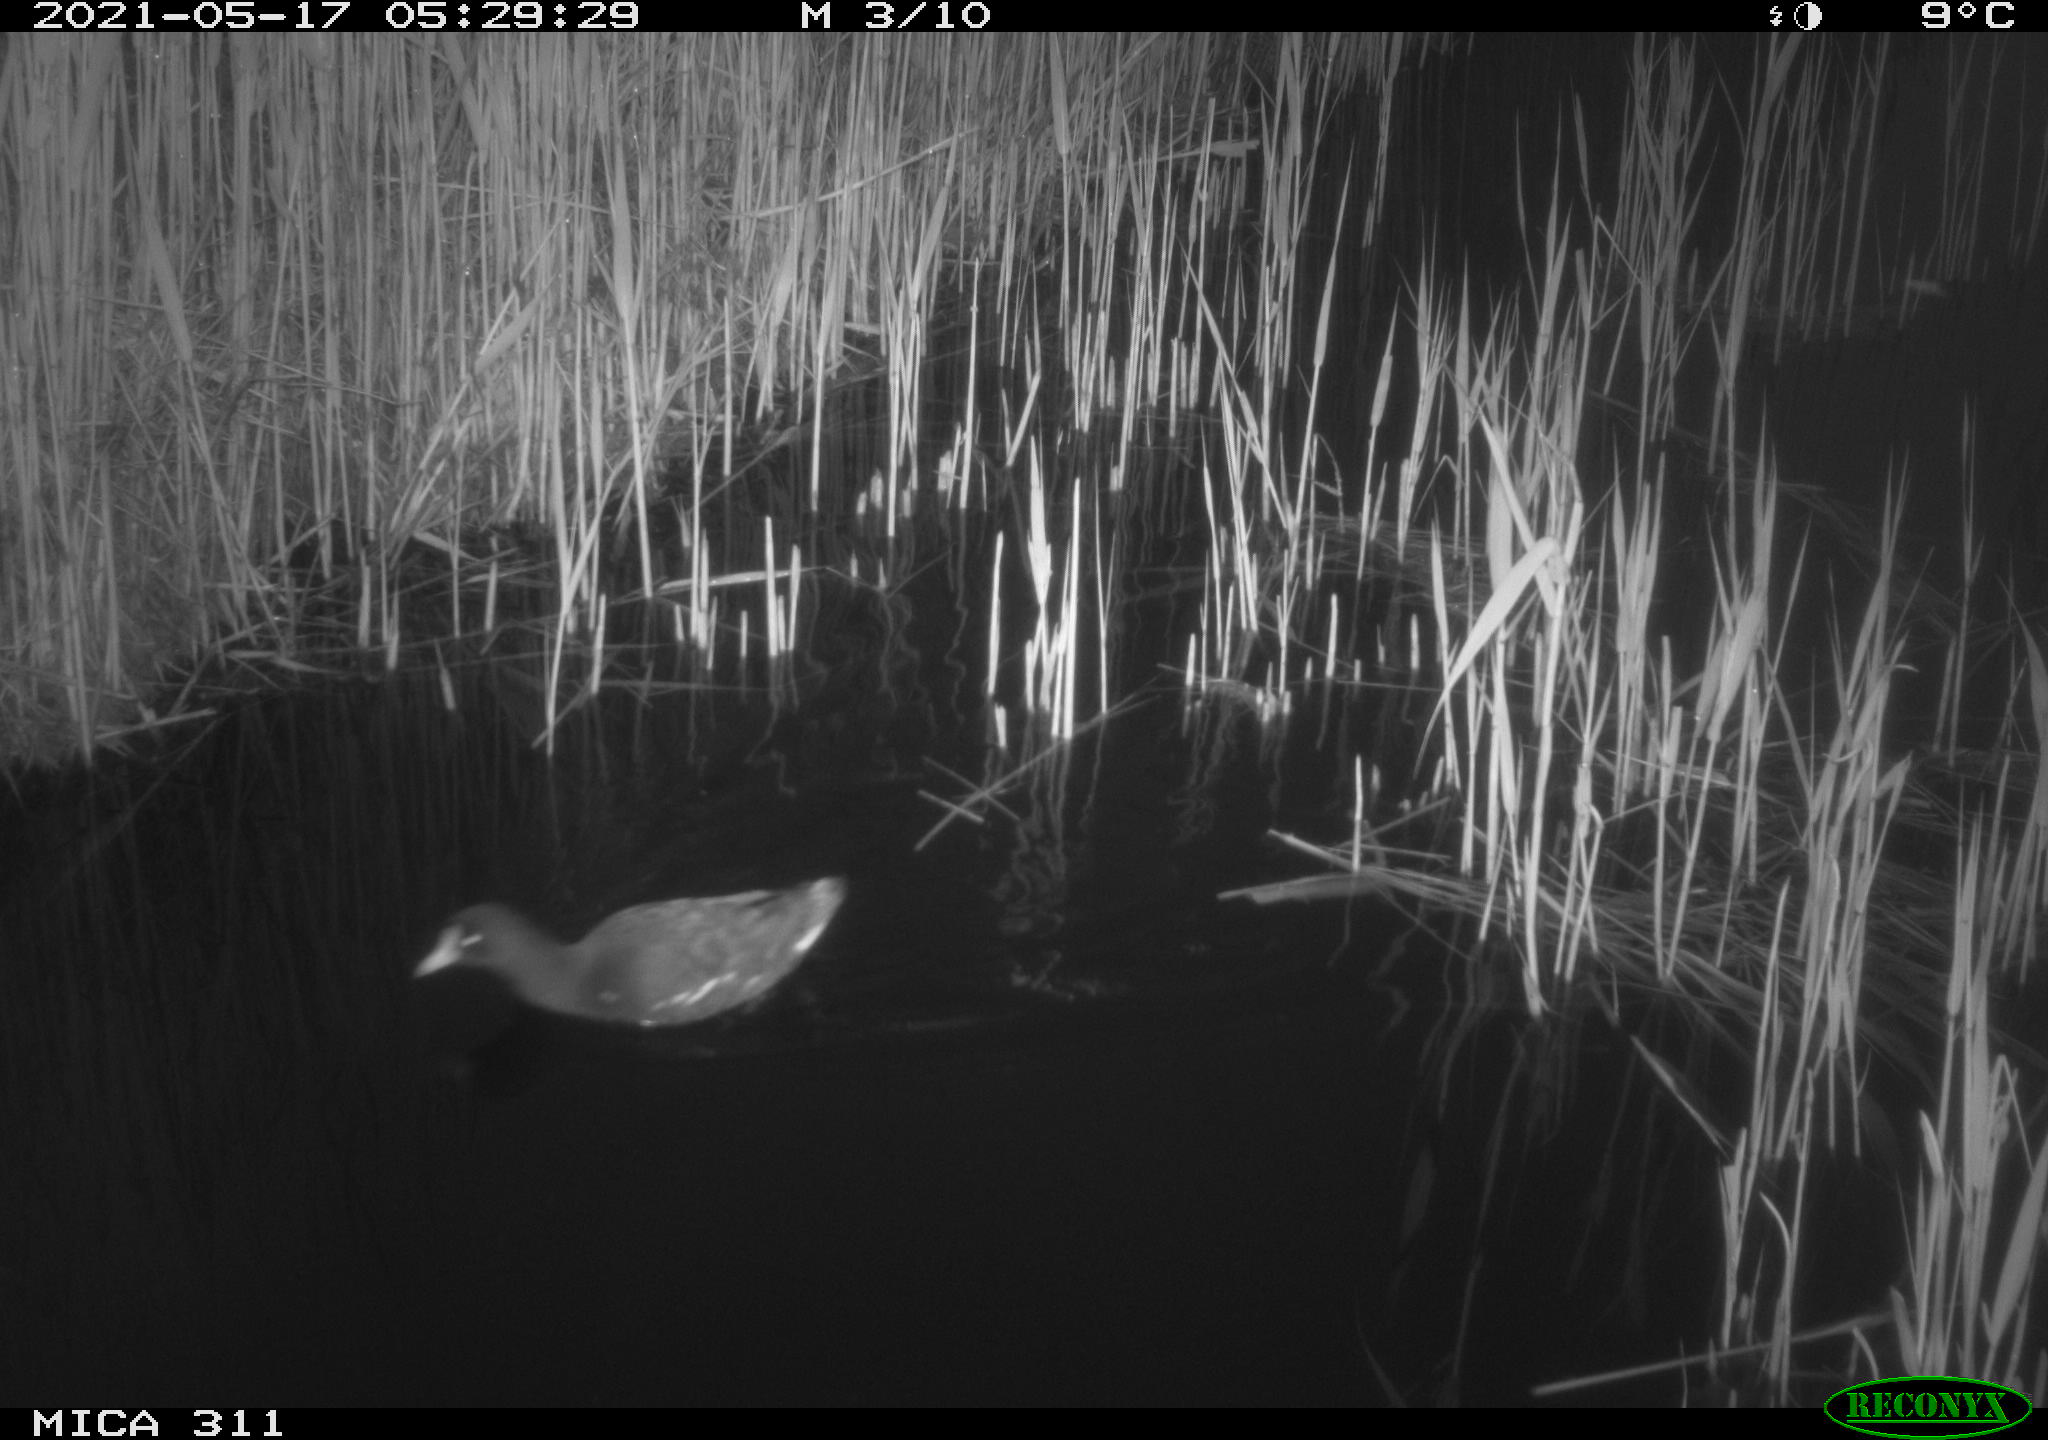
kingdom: Animalia
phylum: Chordata
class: Aves
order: Gruiformes
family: Rallidae
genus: Gallinula
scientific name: Gallinula chloropus
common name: Common moorhen
